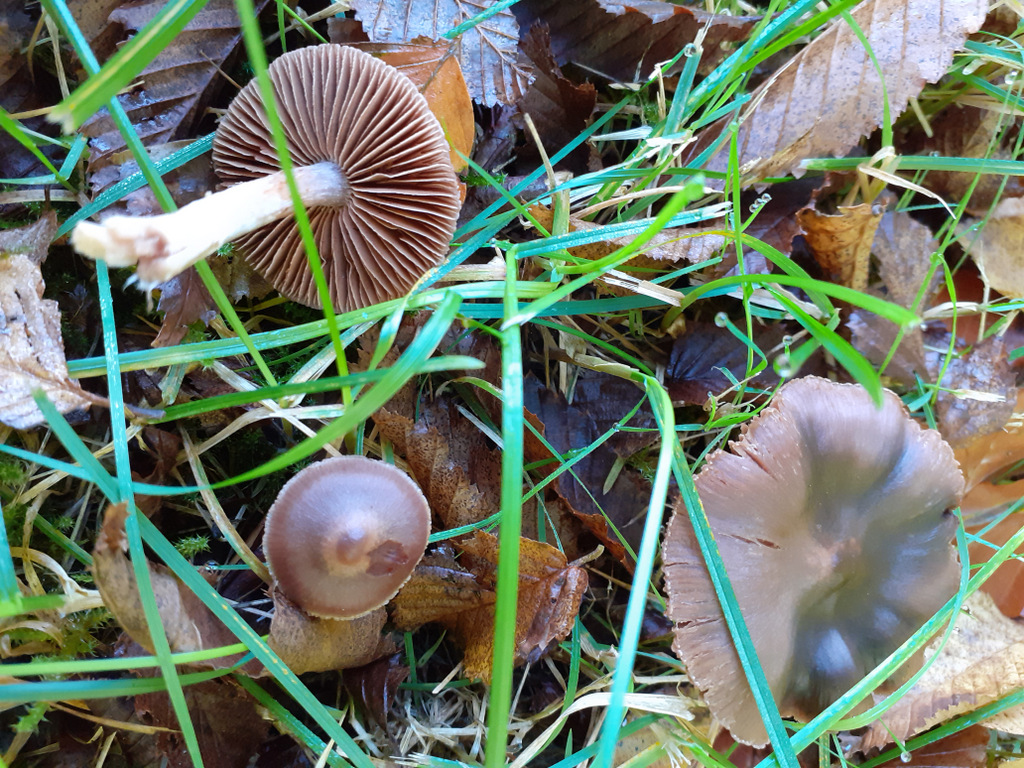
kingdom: Fungi
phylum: Basidiomycota
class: Agaricomycetes
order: Agaricales
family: Cortinariaceae
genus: Cortinarius
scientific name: Cortinarius
